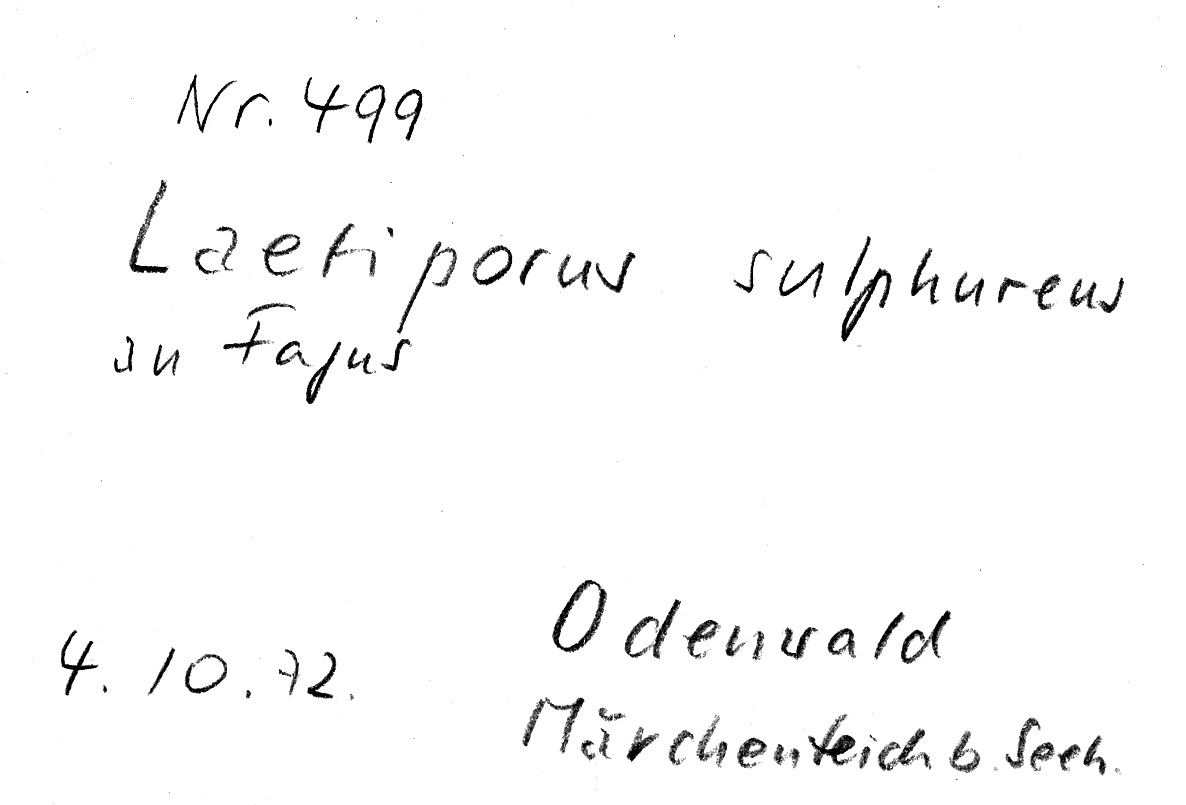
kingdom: Fungi
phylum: Basidiomycota
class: Agaricomycetes
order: Polyporales
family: Laetiporaceae
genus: Laetiporus
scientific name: Laetiporus sulphureus
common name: Chicken of the woods
